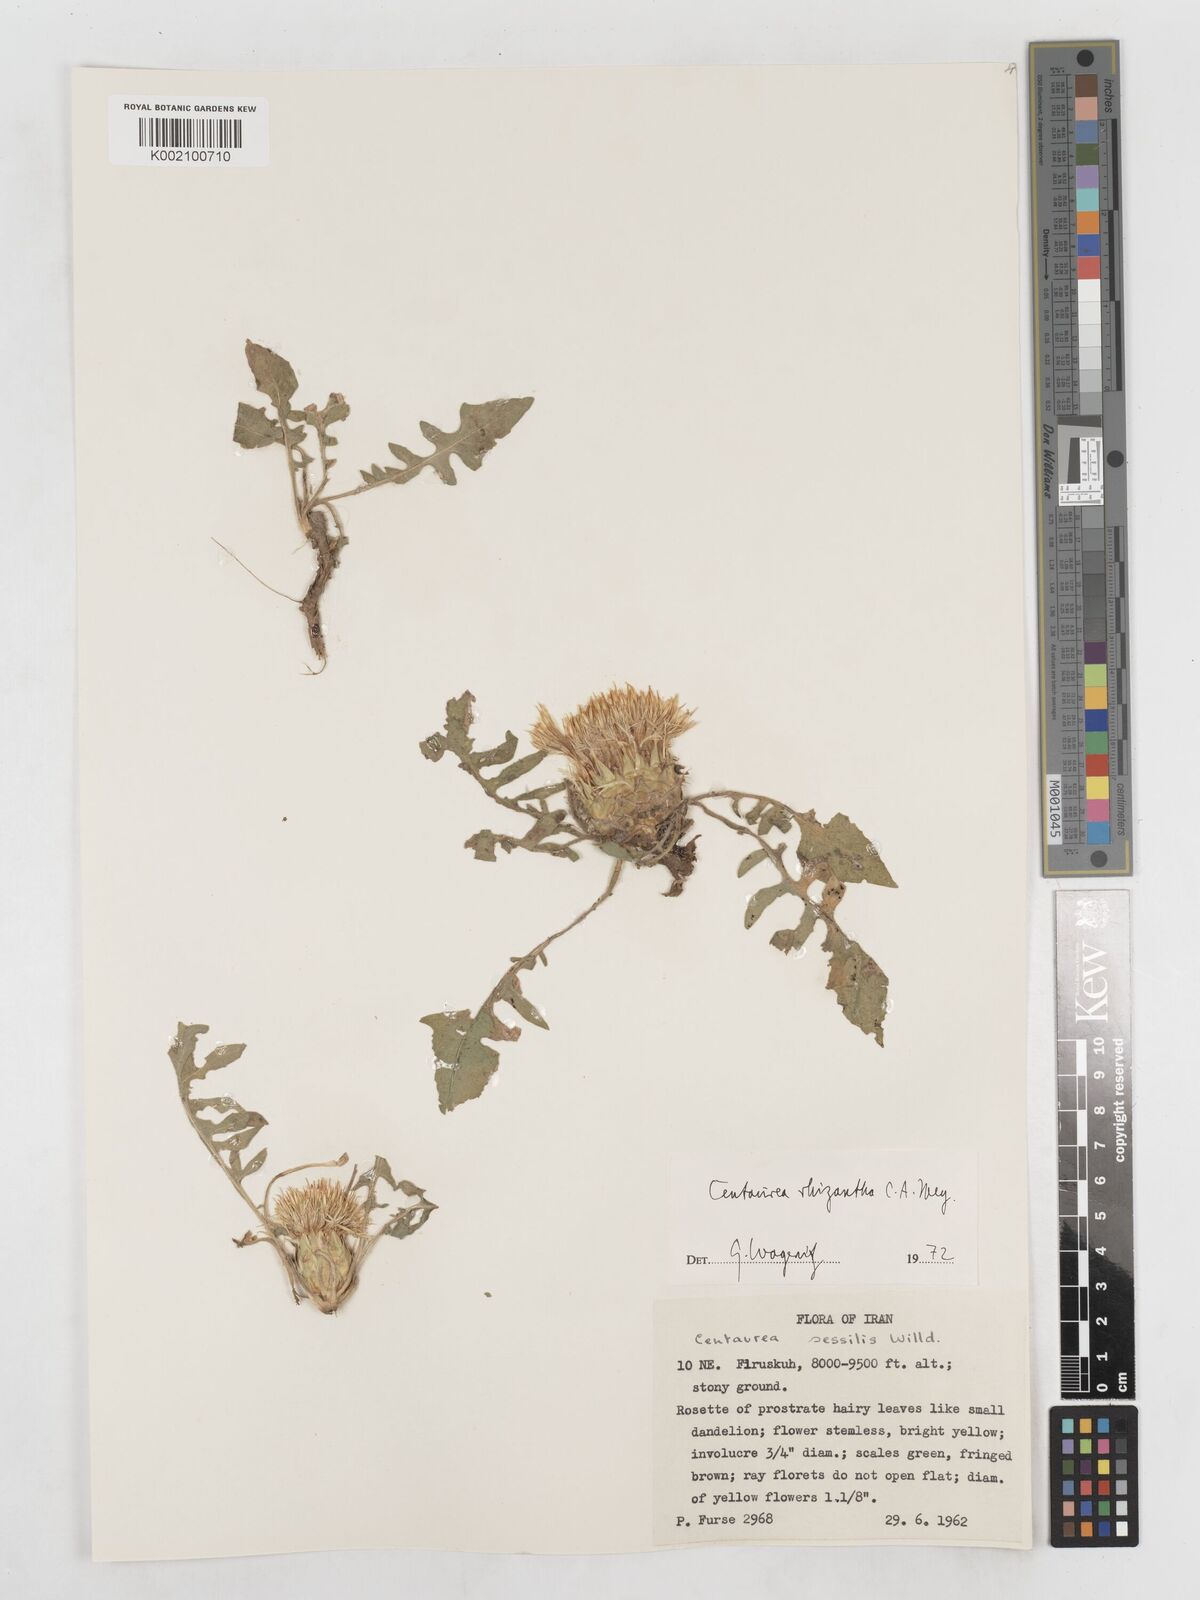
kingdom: Plantae
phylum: Tracheophyta
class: Magnoliopsida
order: Asterales
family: Asteraceae
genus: Centaurea
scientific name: Centaurea rhizantha
